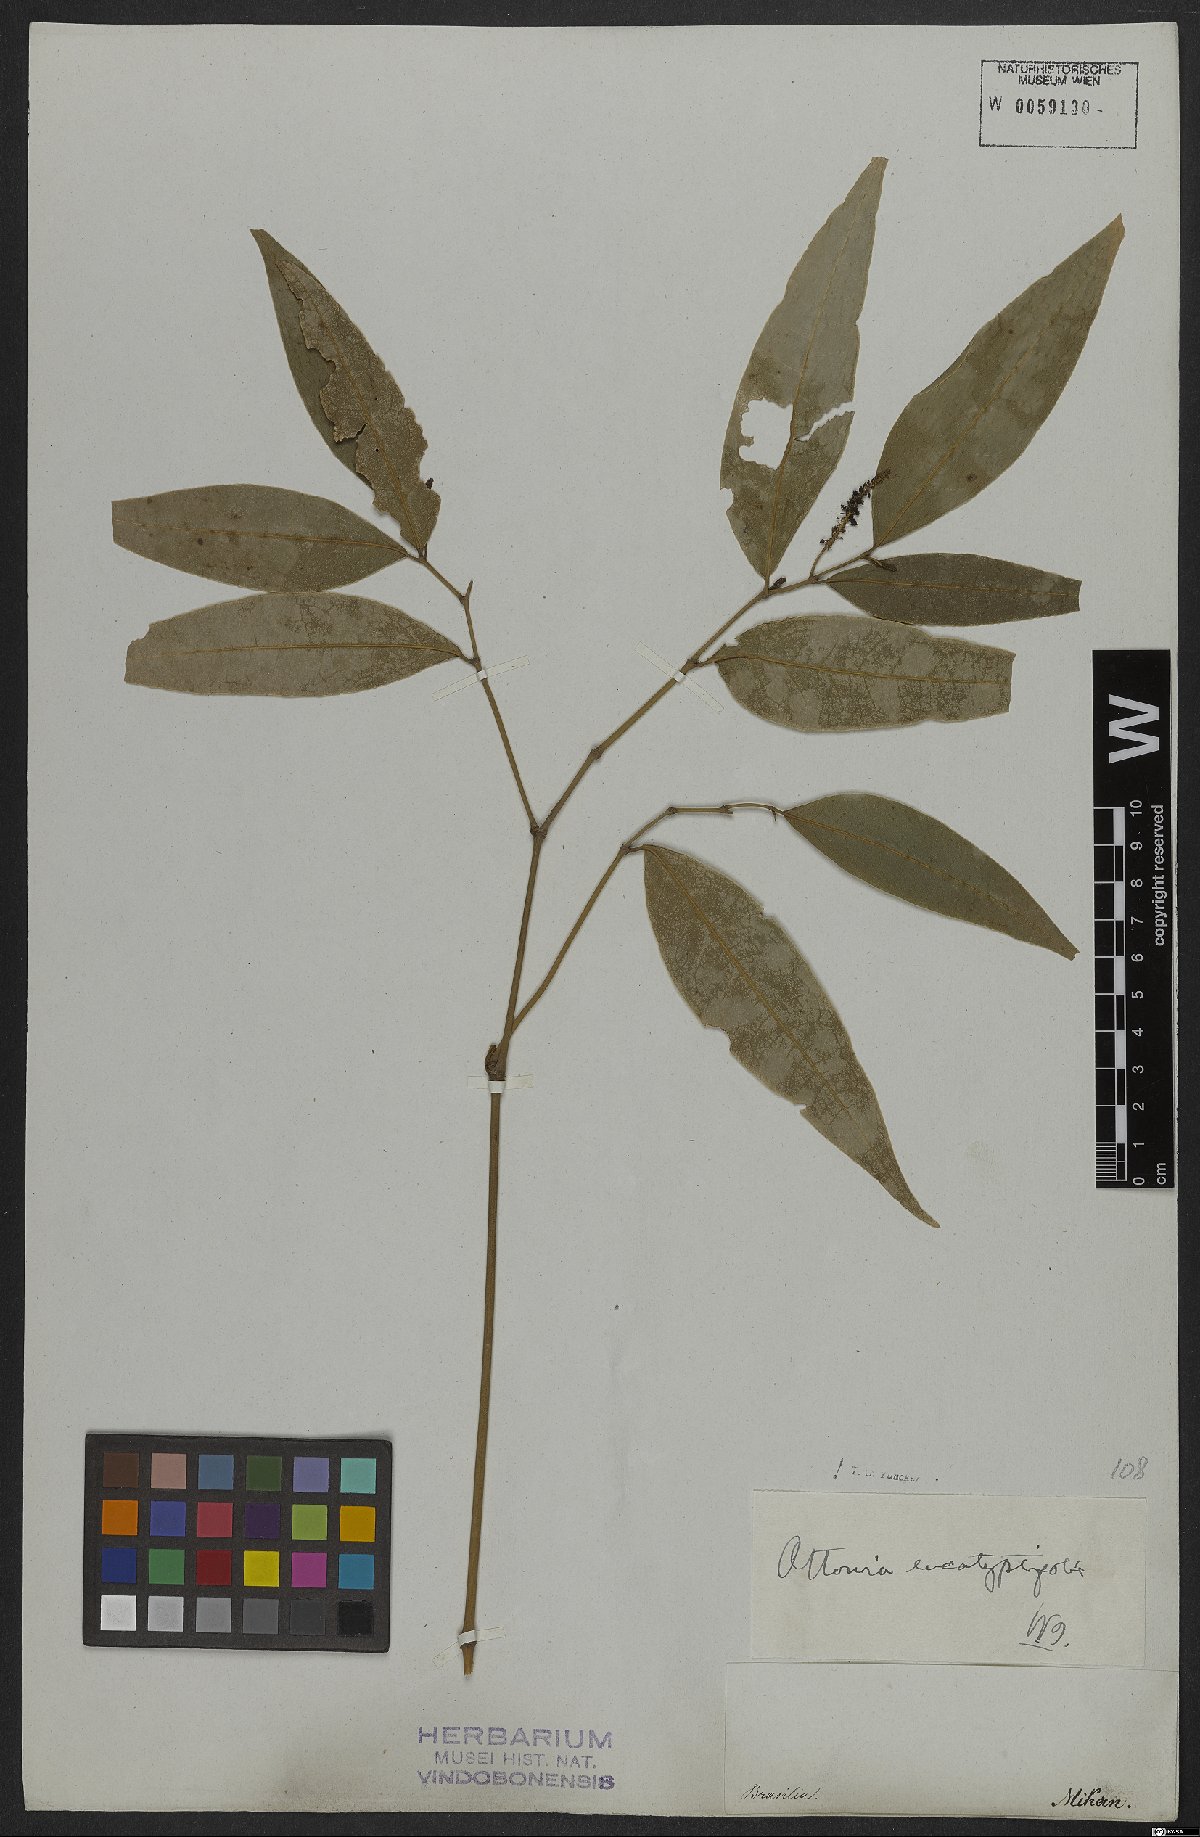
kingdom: Plantae
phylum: Tracheophyta
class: Magnoliopsida
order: Piperales
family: Piperaceae
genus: Piper
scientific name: Piper eucalyptolimbum
